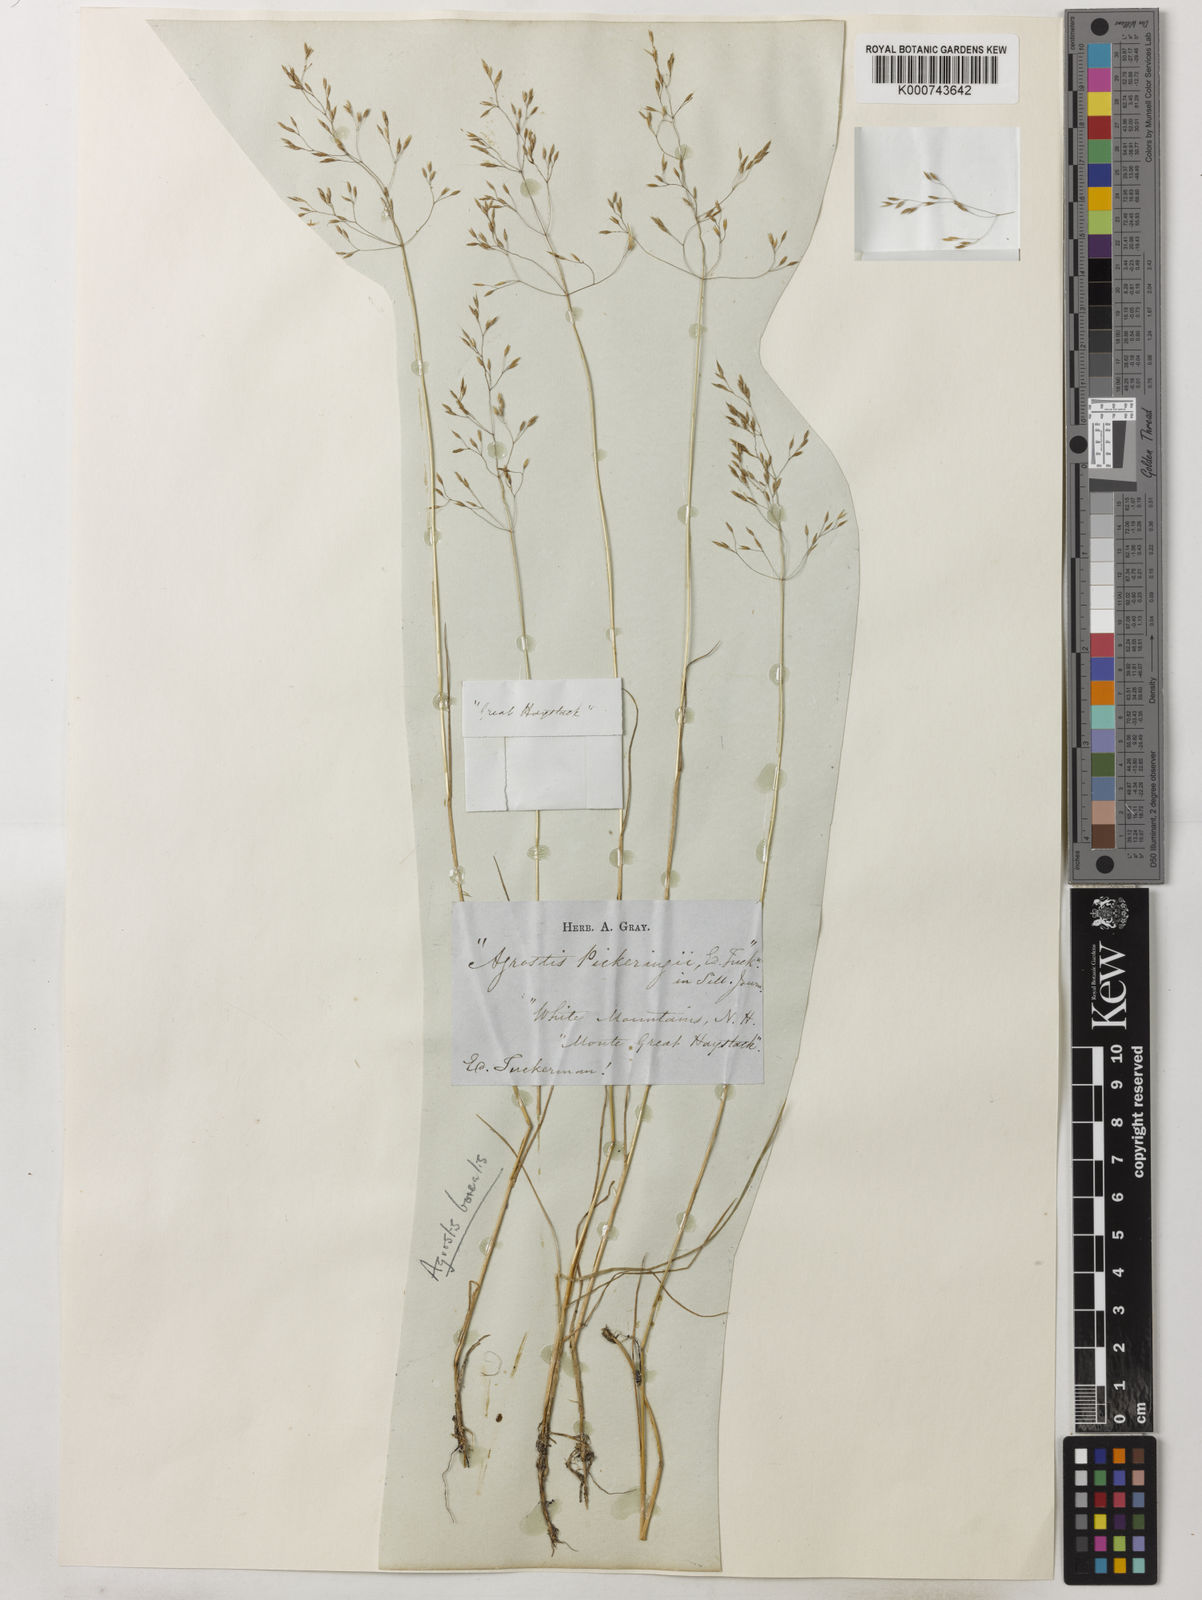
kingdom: Plantae
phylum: Tracheophyta
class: Liliopsida
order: Poales
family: Poaceae
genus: Agrostis
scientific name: Agrostis mertensii
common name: Northern bent
